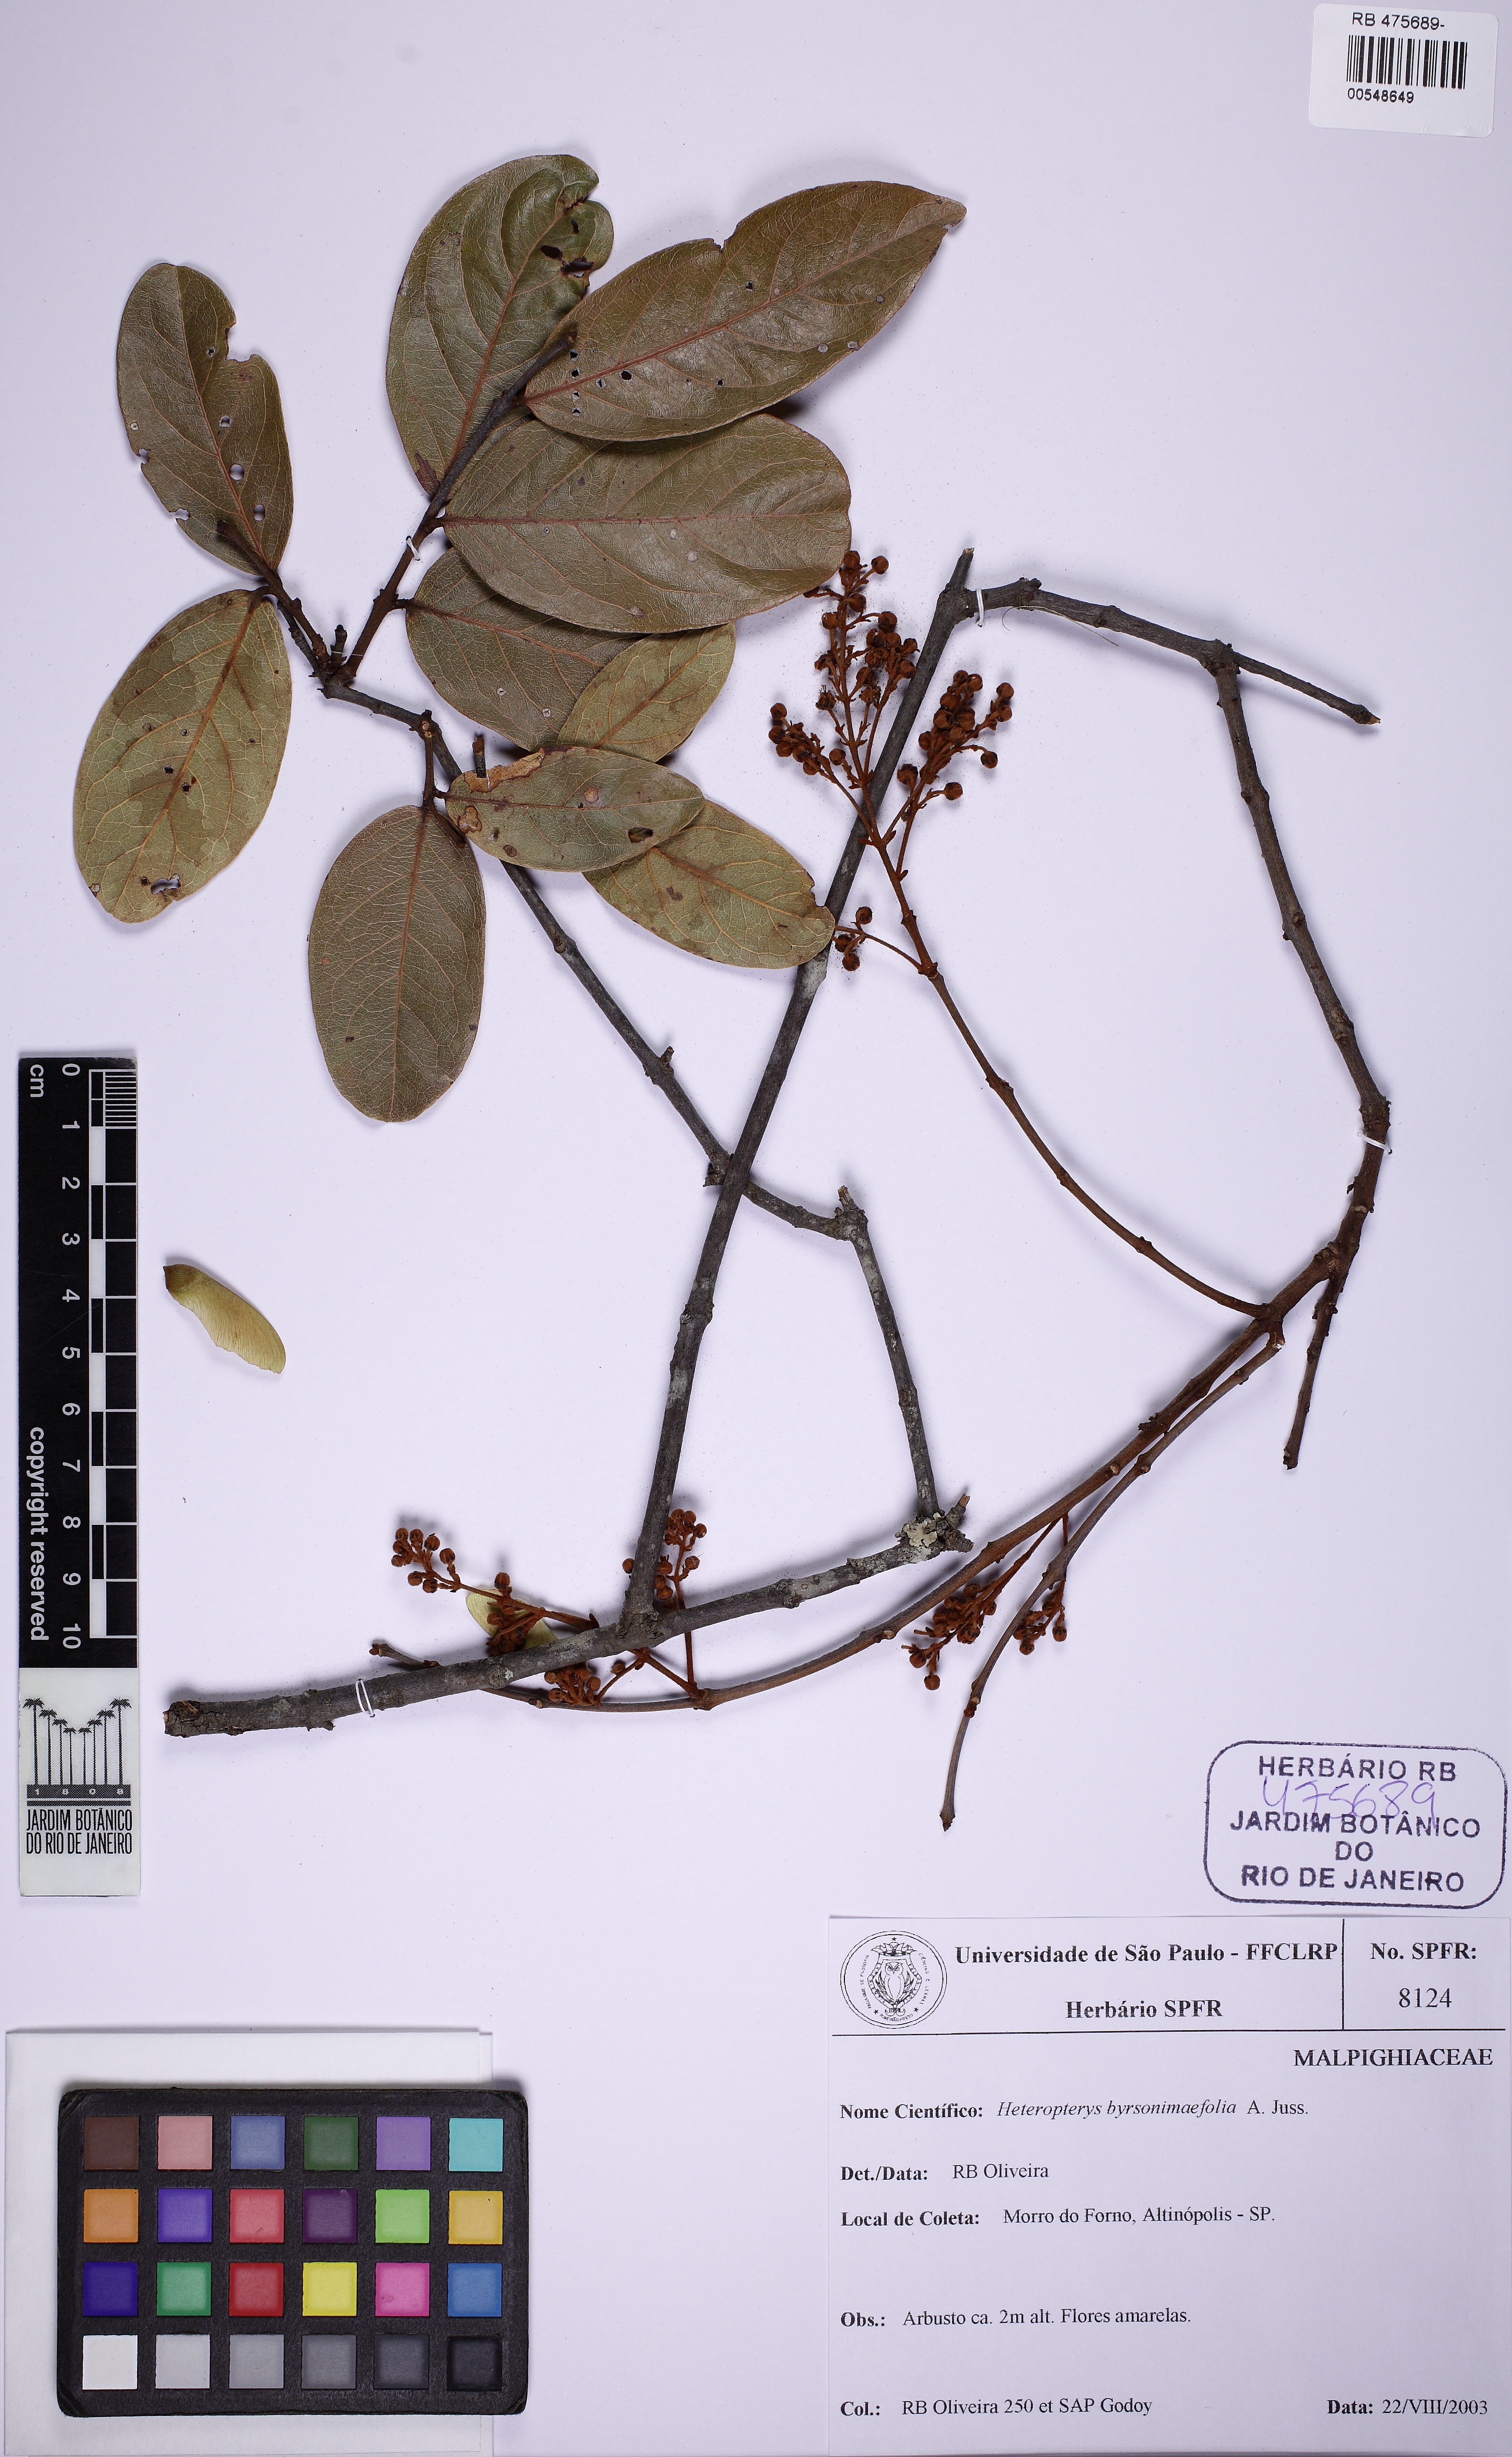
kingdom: Plantae
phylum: Tracheophyta
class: Magnoliopsida
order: Malpighiales
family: Malpighiaceae
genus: Heteropterys
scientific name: Heteropterys byrsonimifolia
